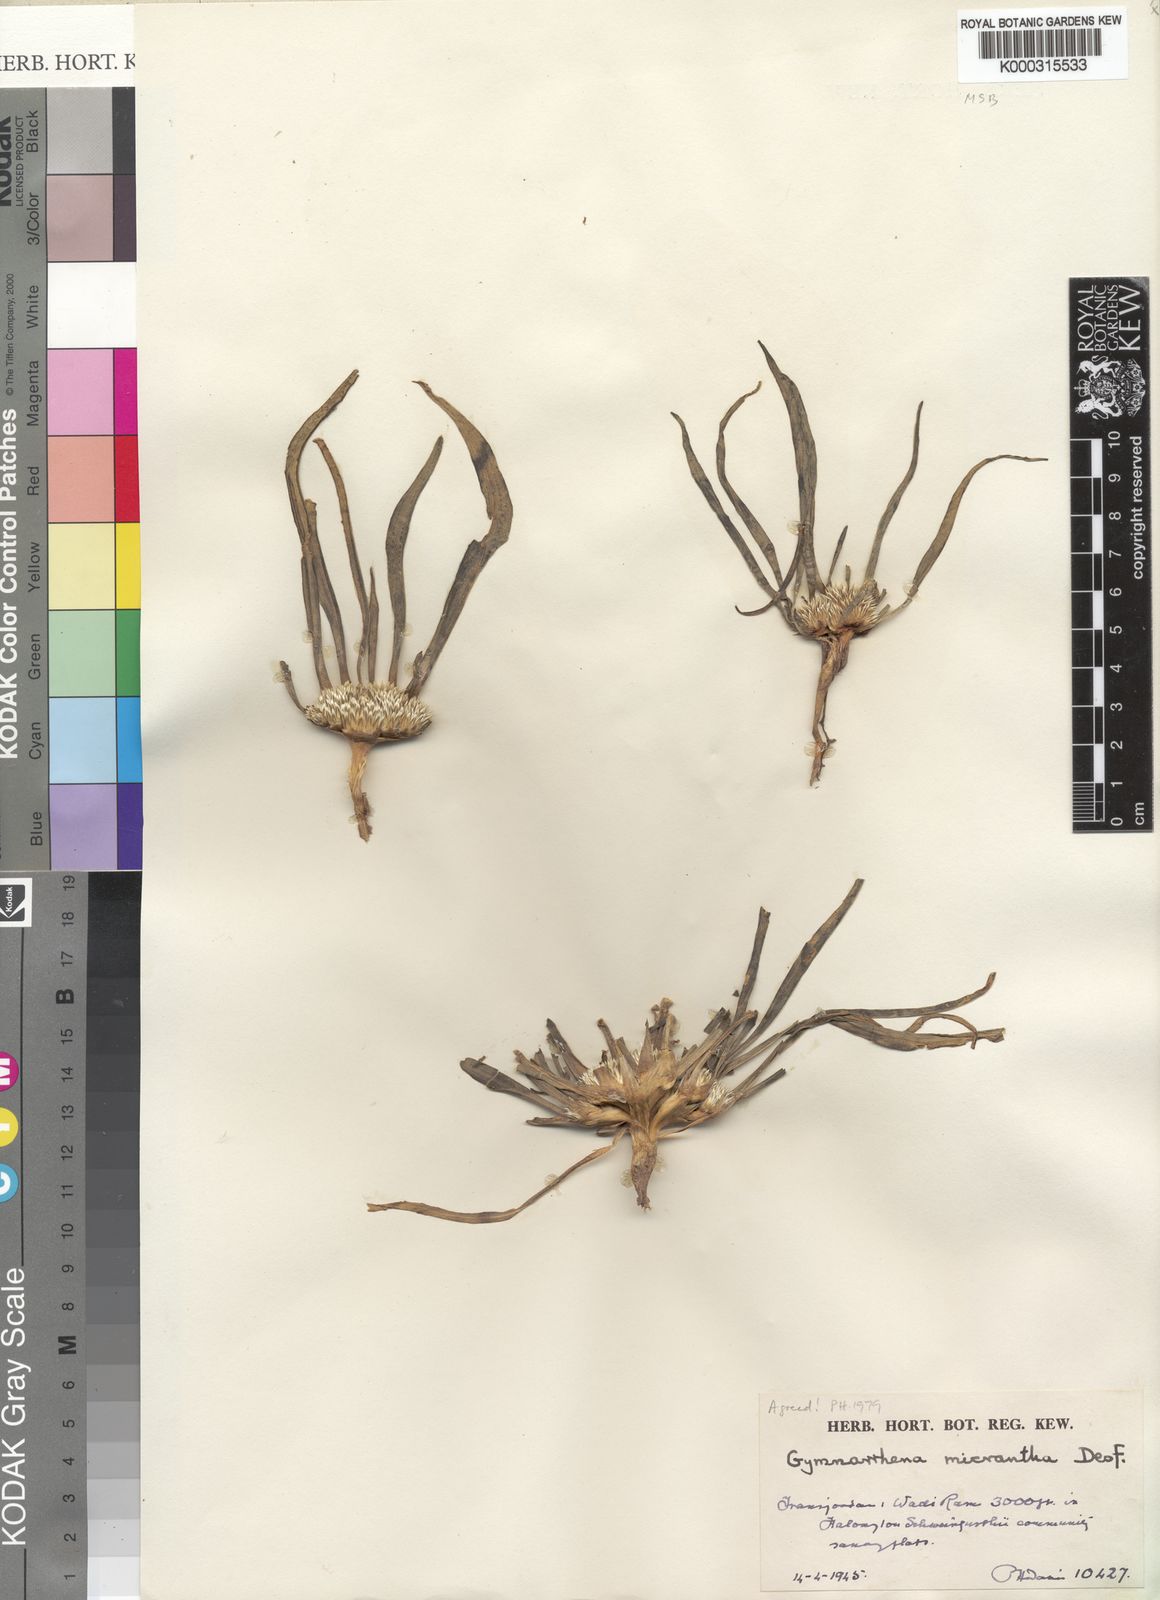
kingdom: Plantae
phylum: Tracheophyta
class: Magnoliopsida
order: Asterales
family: Asteraceae
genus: Gymnarrhena
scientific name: Gymnarrhena micrantha
